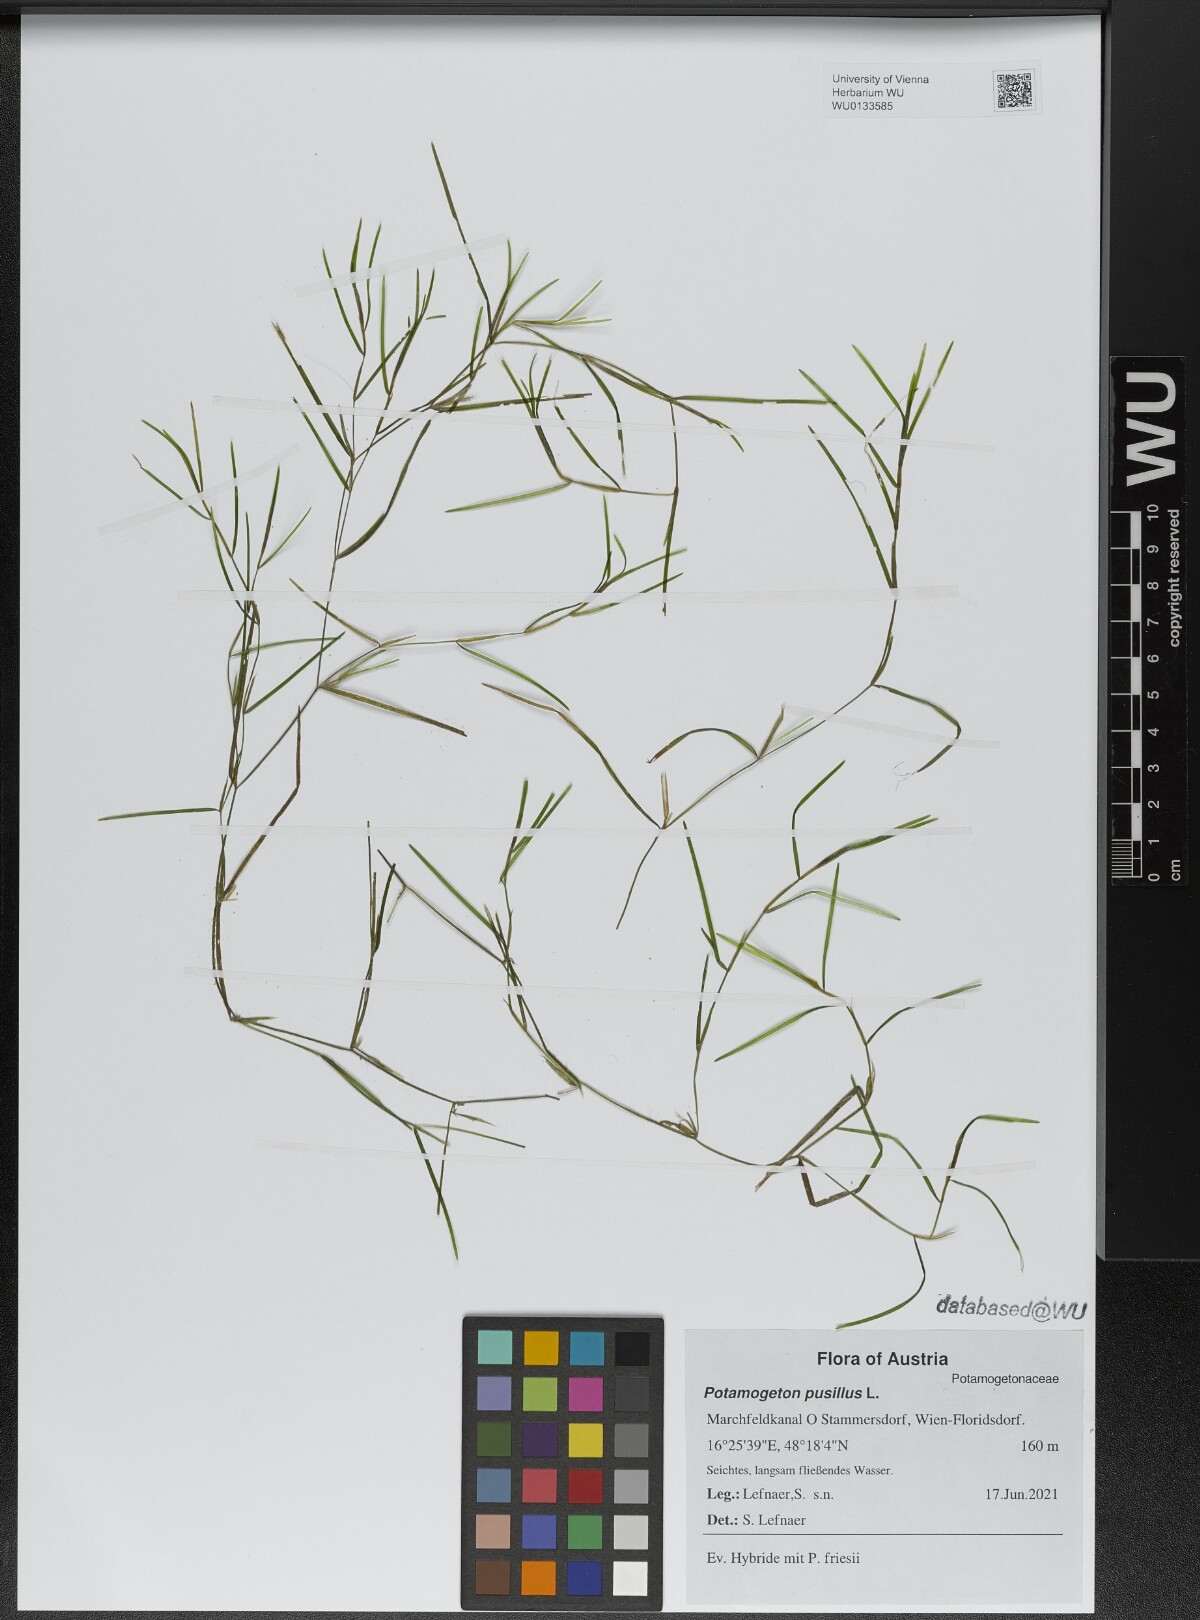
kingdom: Plantae
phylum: Tracheophyta
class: Liliopsida
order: Alismatales
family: Potamogetonaceae
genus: Potamogeton
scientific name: Potamogeton pusillus
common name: Lesser pondweed
